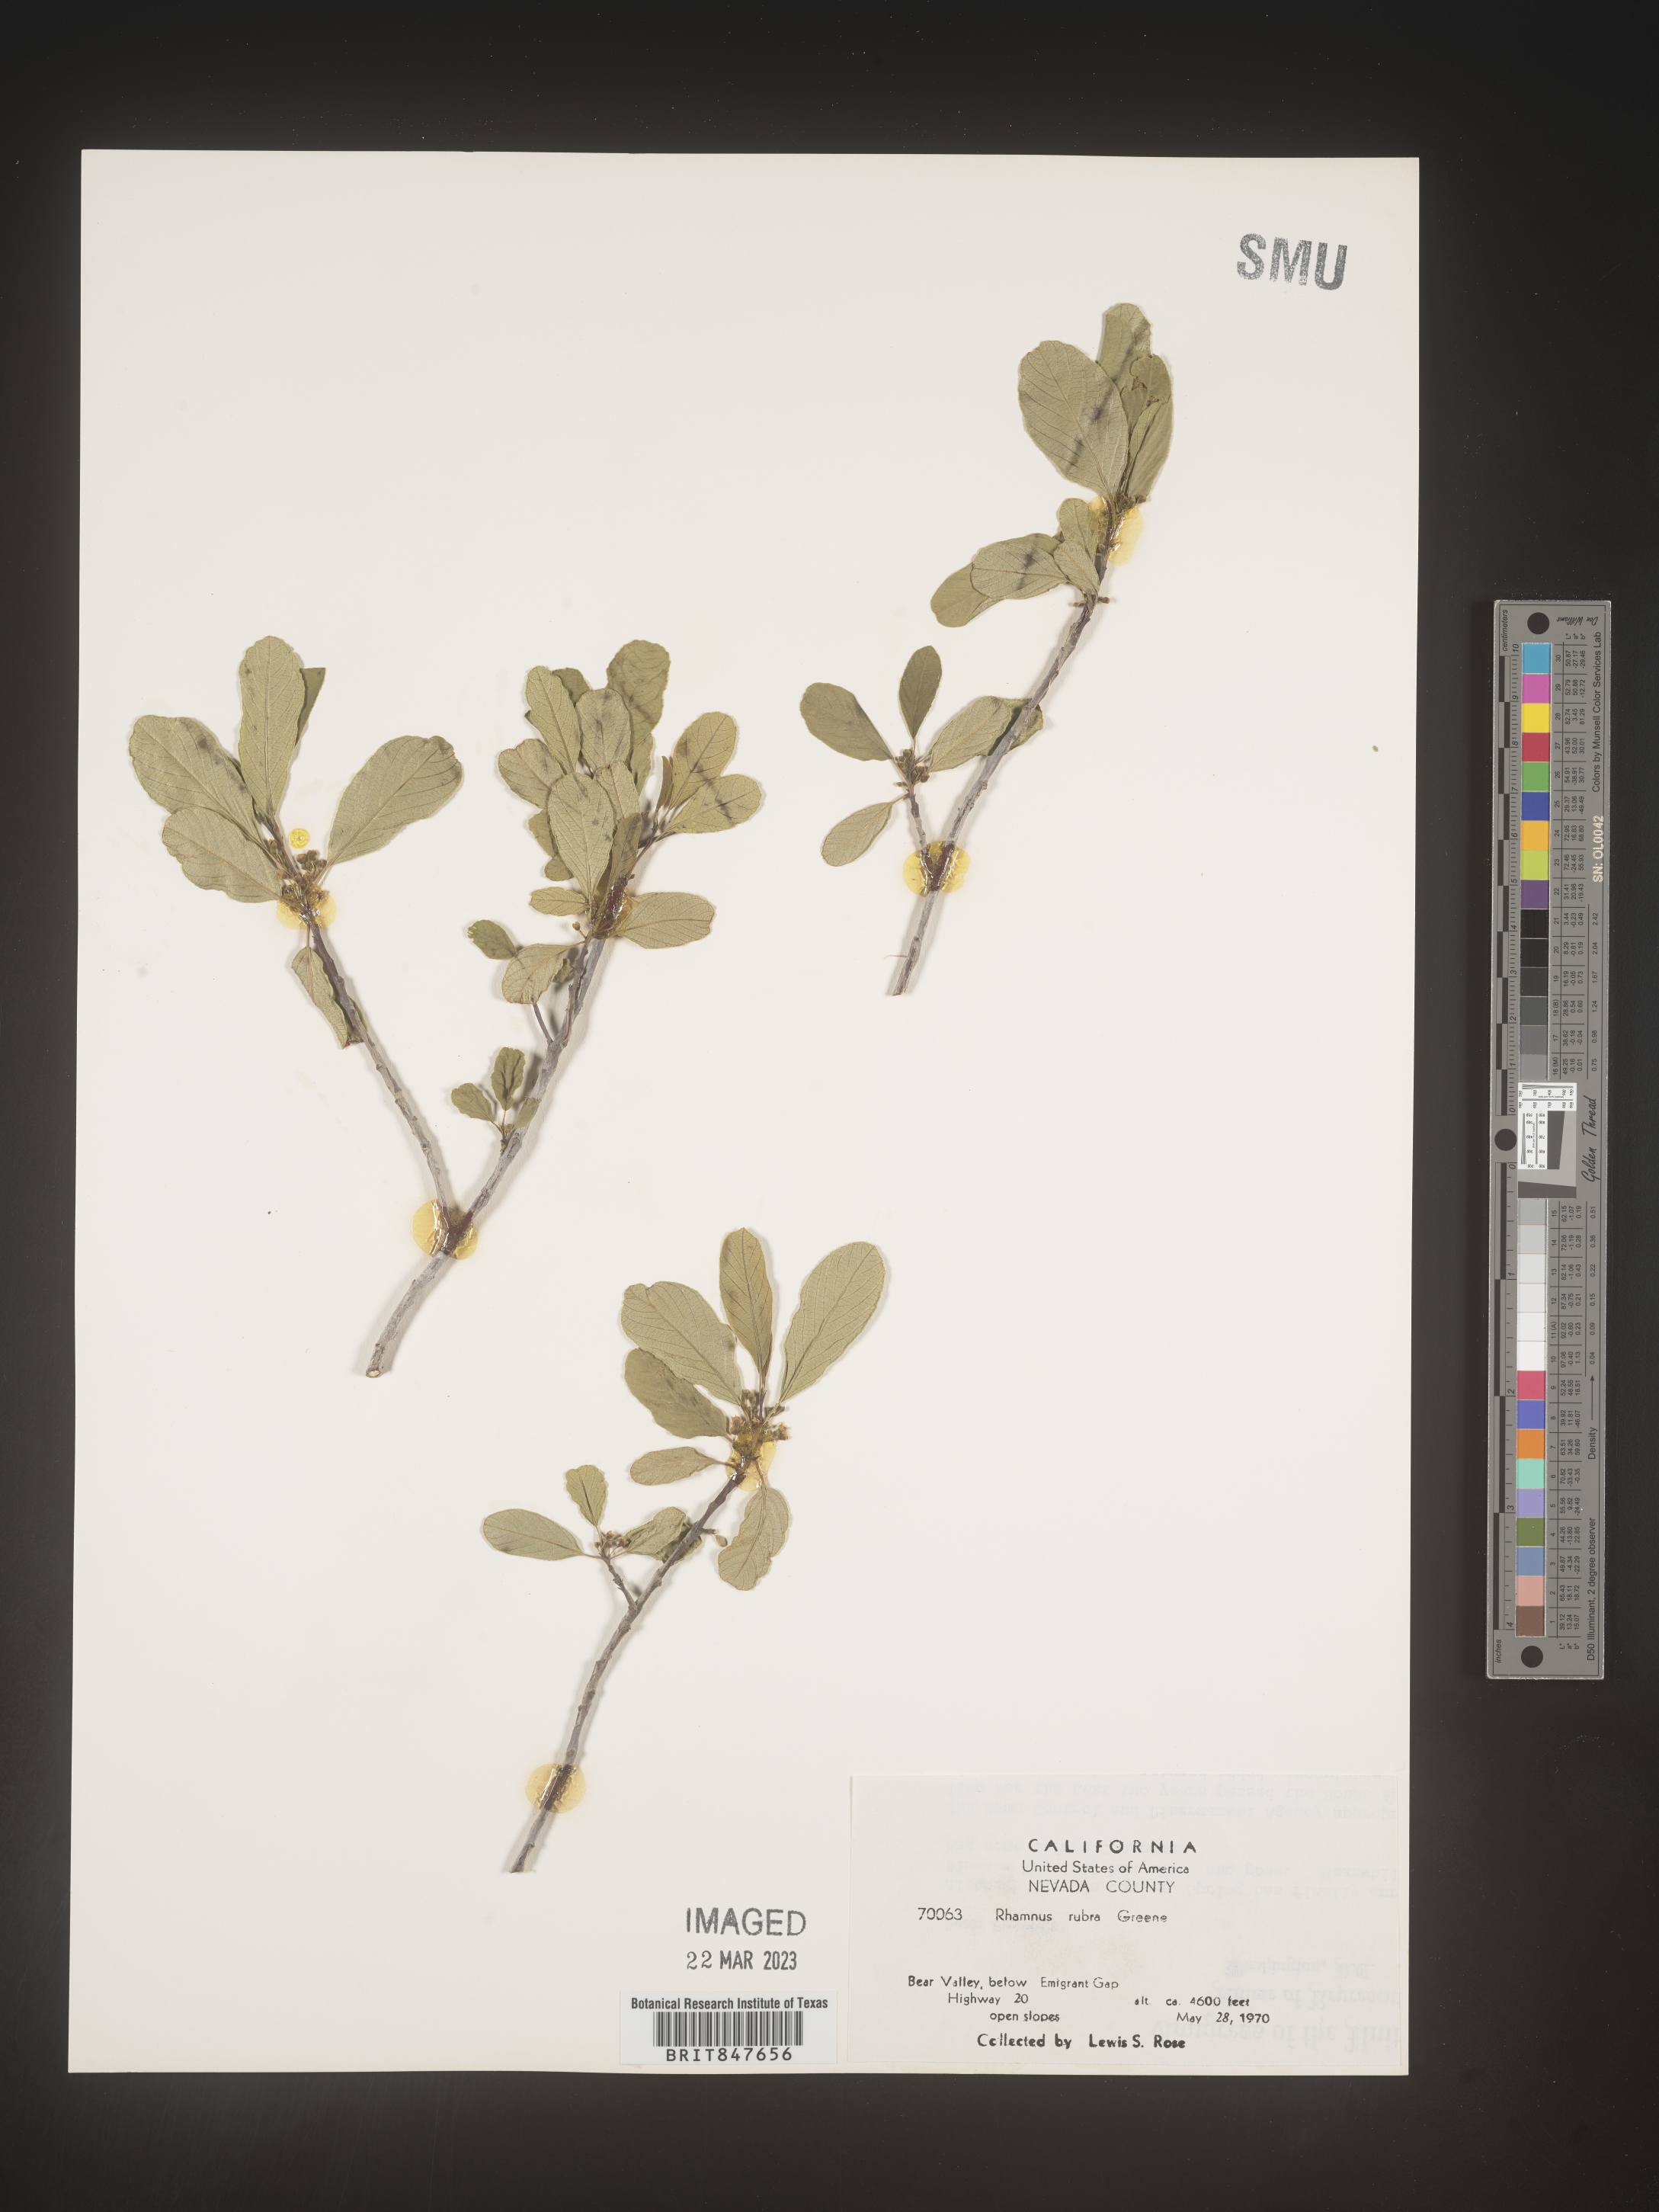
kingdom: Plantae
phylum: Tracheophyta
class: Magnoliopsida
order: Rosales
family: Rhamnaceae
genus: Rhamnus
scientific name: Rhamnus
